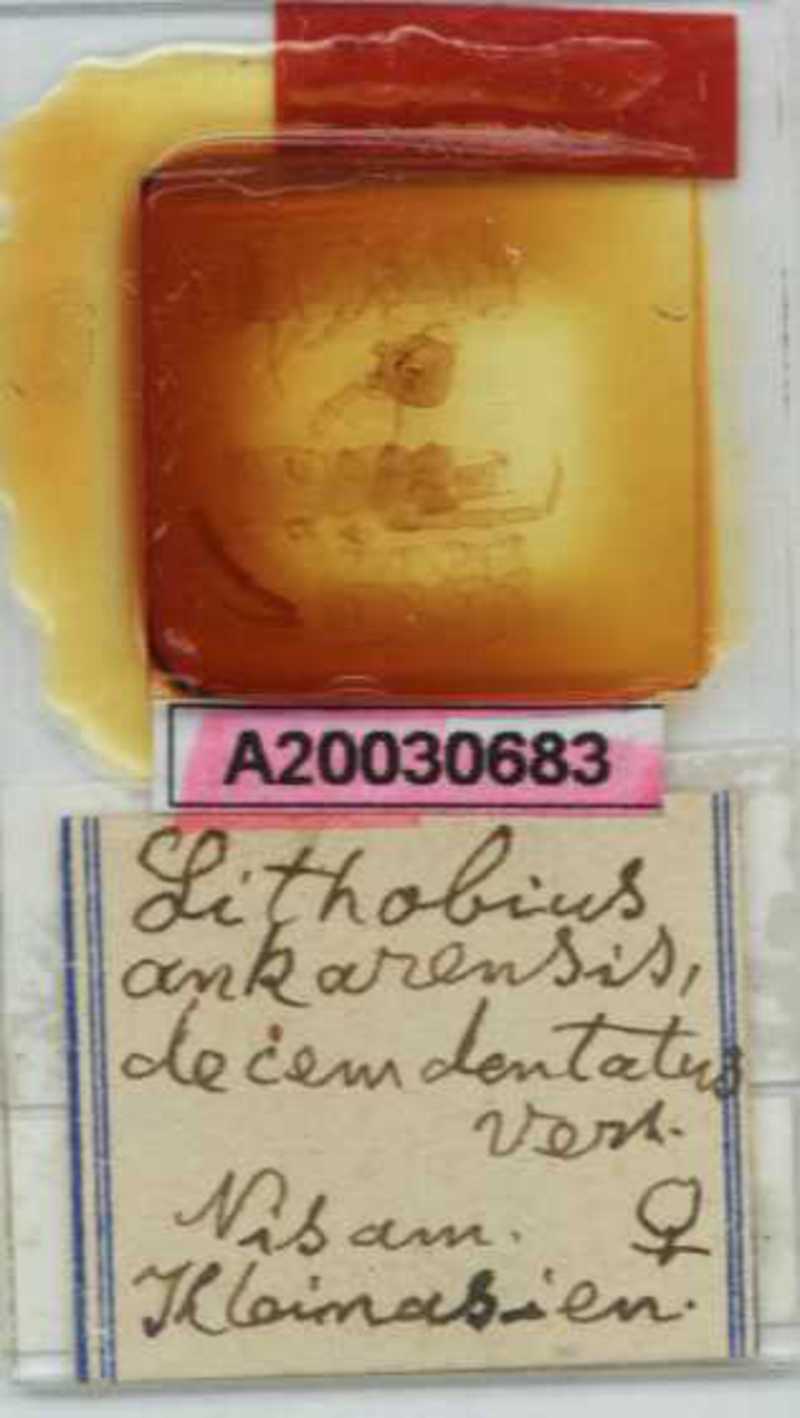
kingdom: Animalia
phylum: Arthropoda
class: Chilopoda
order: Lithobiomorpha
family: Lithobiidae
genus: Lithobius
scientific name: Lithobius nigripalpis
